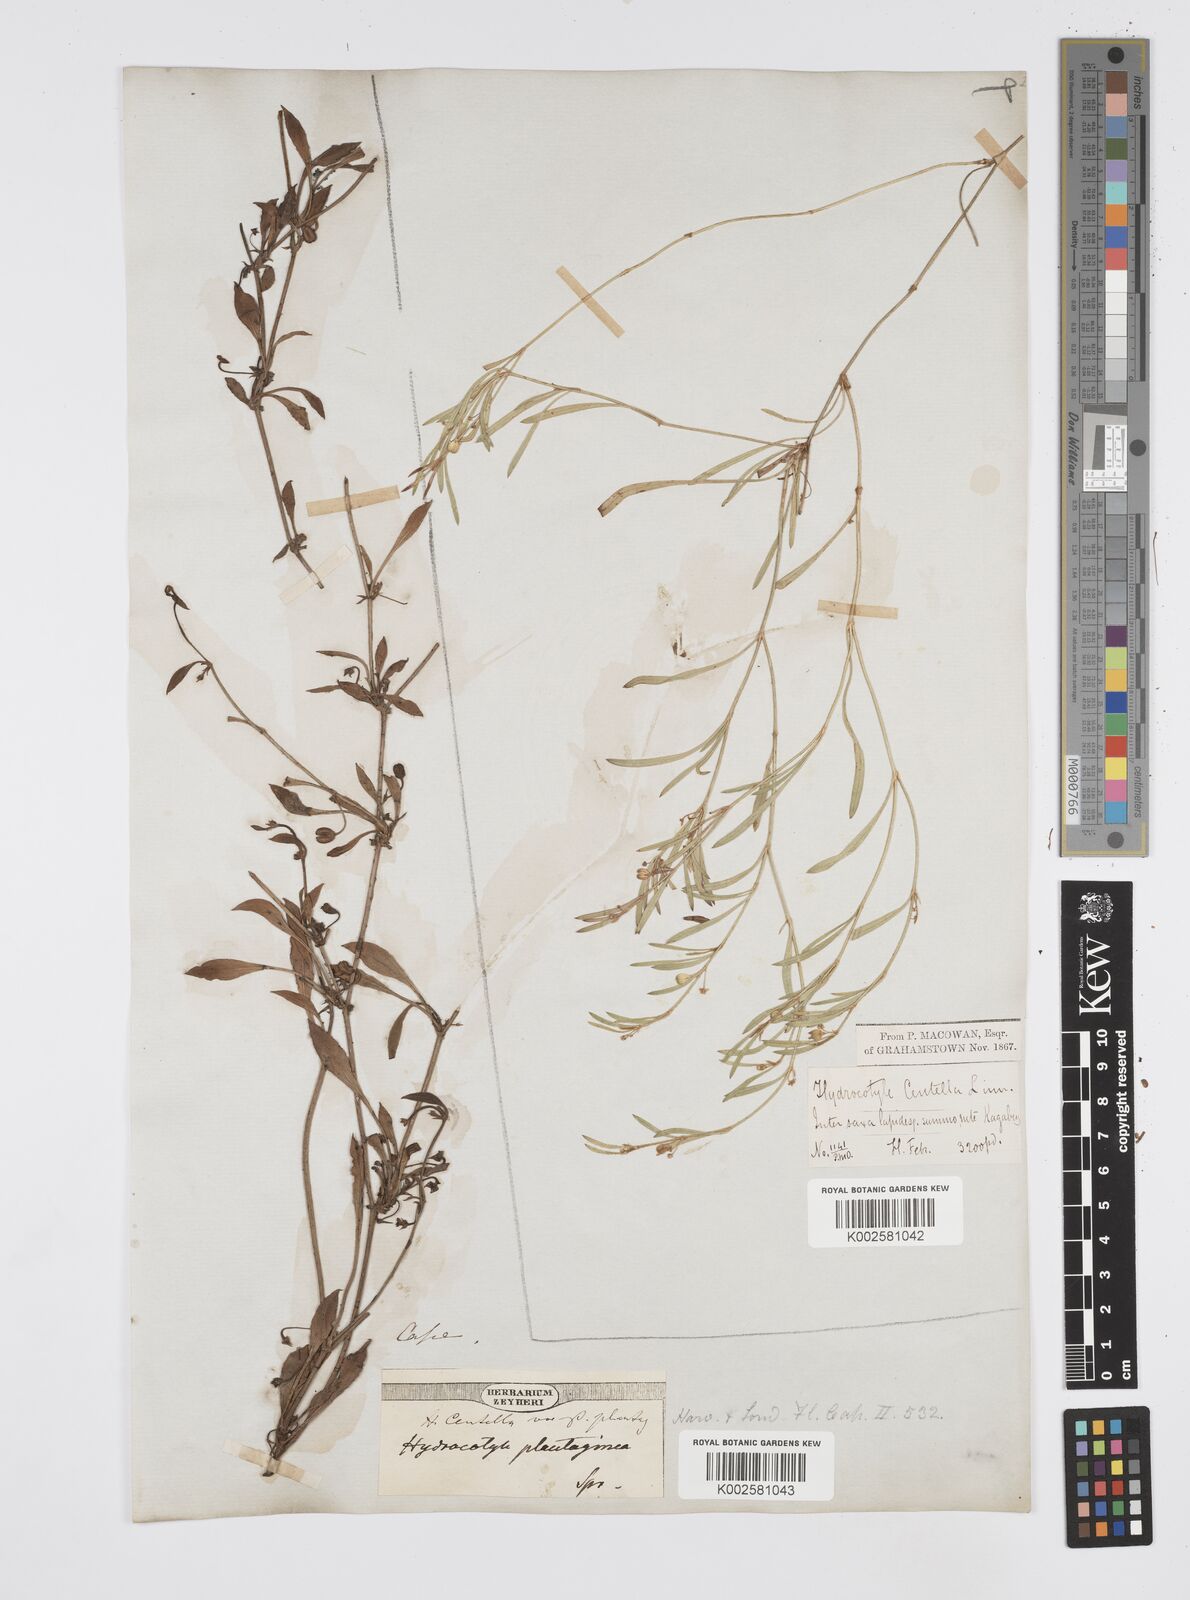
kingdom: Plantae
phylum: Tracheophyta
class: Magnoliopsida
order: Apiales
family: Apiaceae
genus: Centella
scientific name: Centella glabrata
